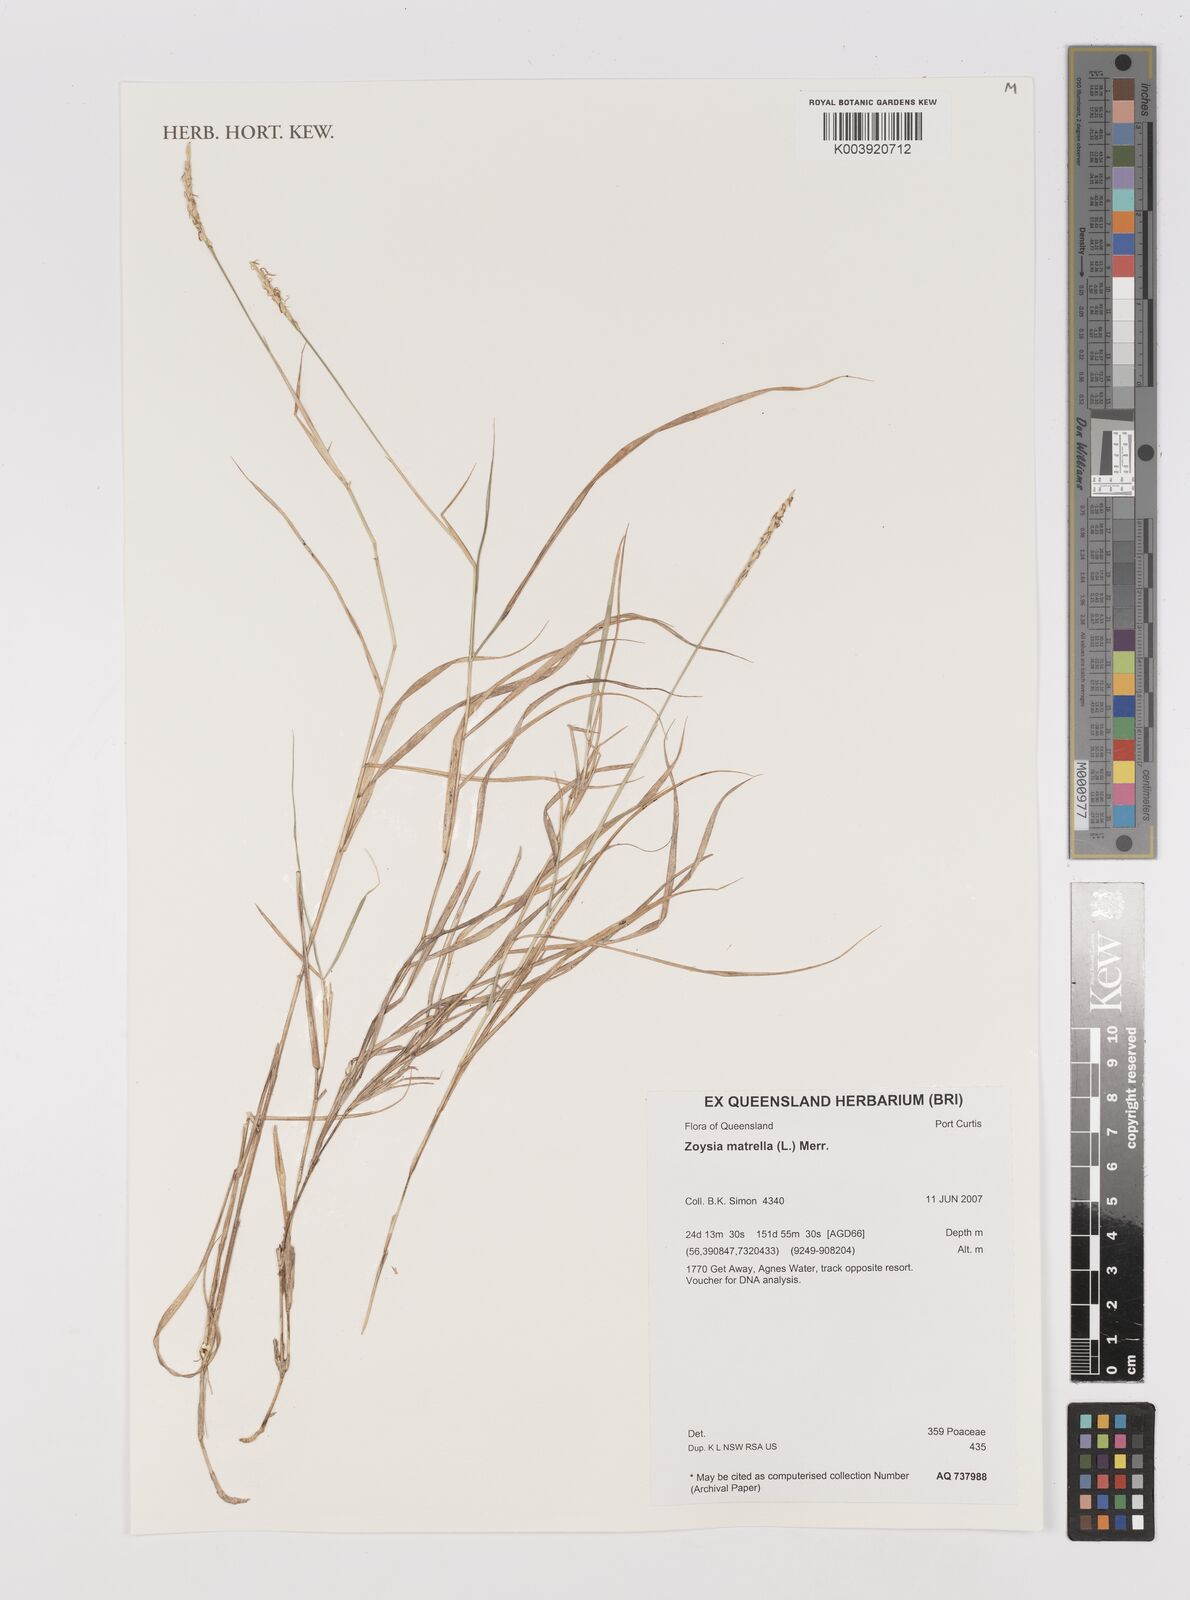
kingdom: Plantae
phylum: Tracheophyta
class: Liliopsida
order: Poales
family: Poaceae
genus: Zoysia
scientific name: Zoysia macrantha
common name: Korean lawn grass
